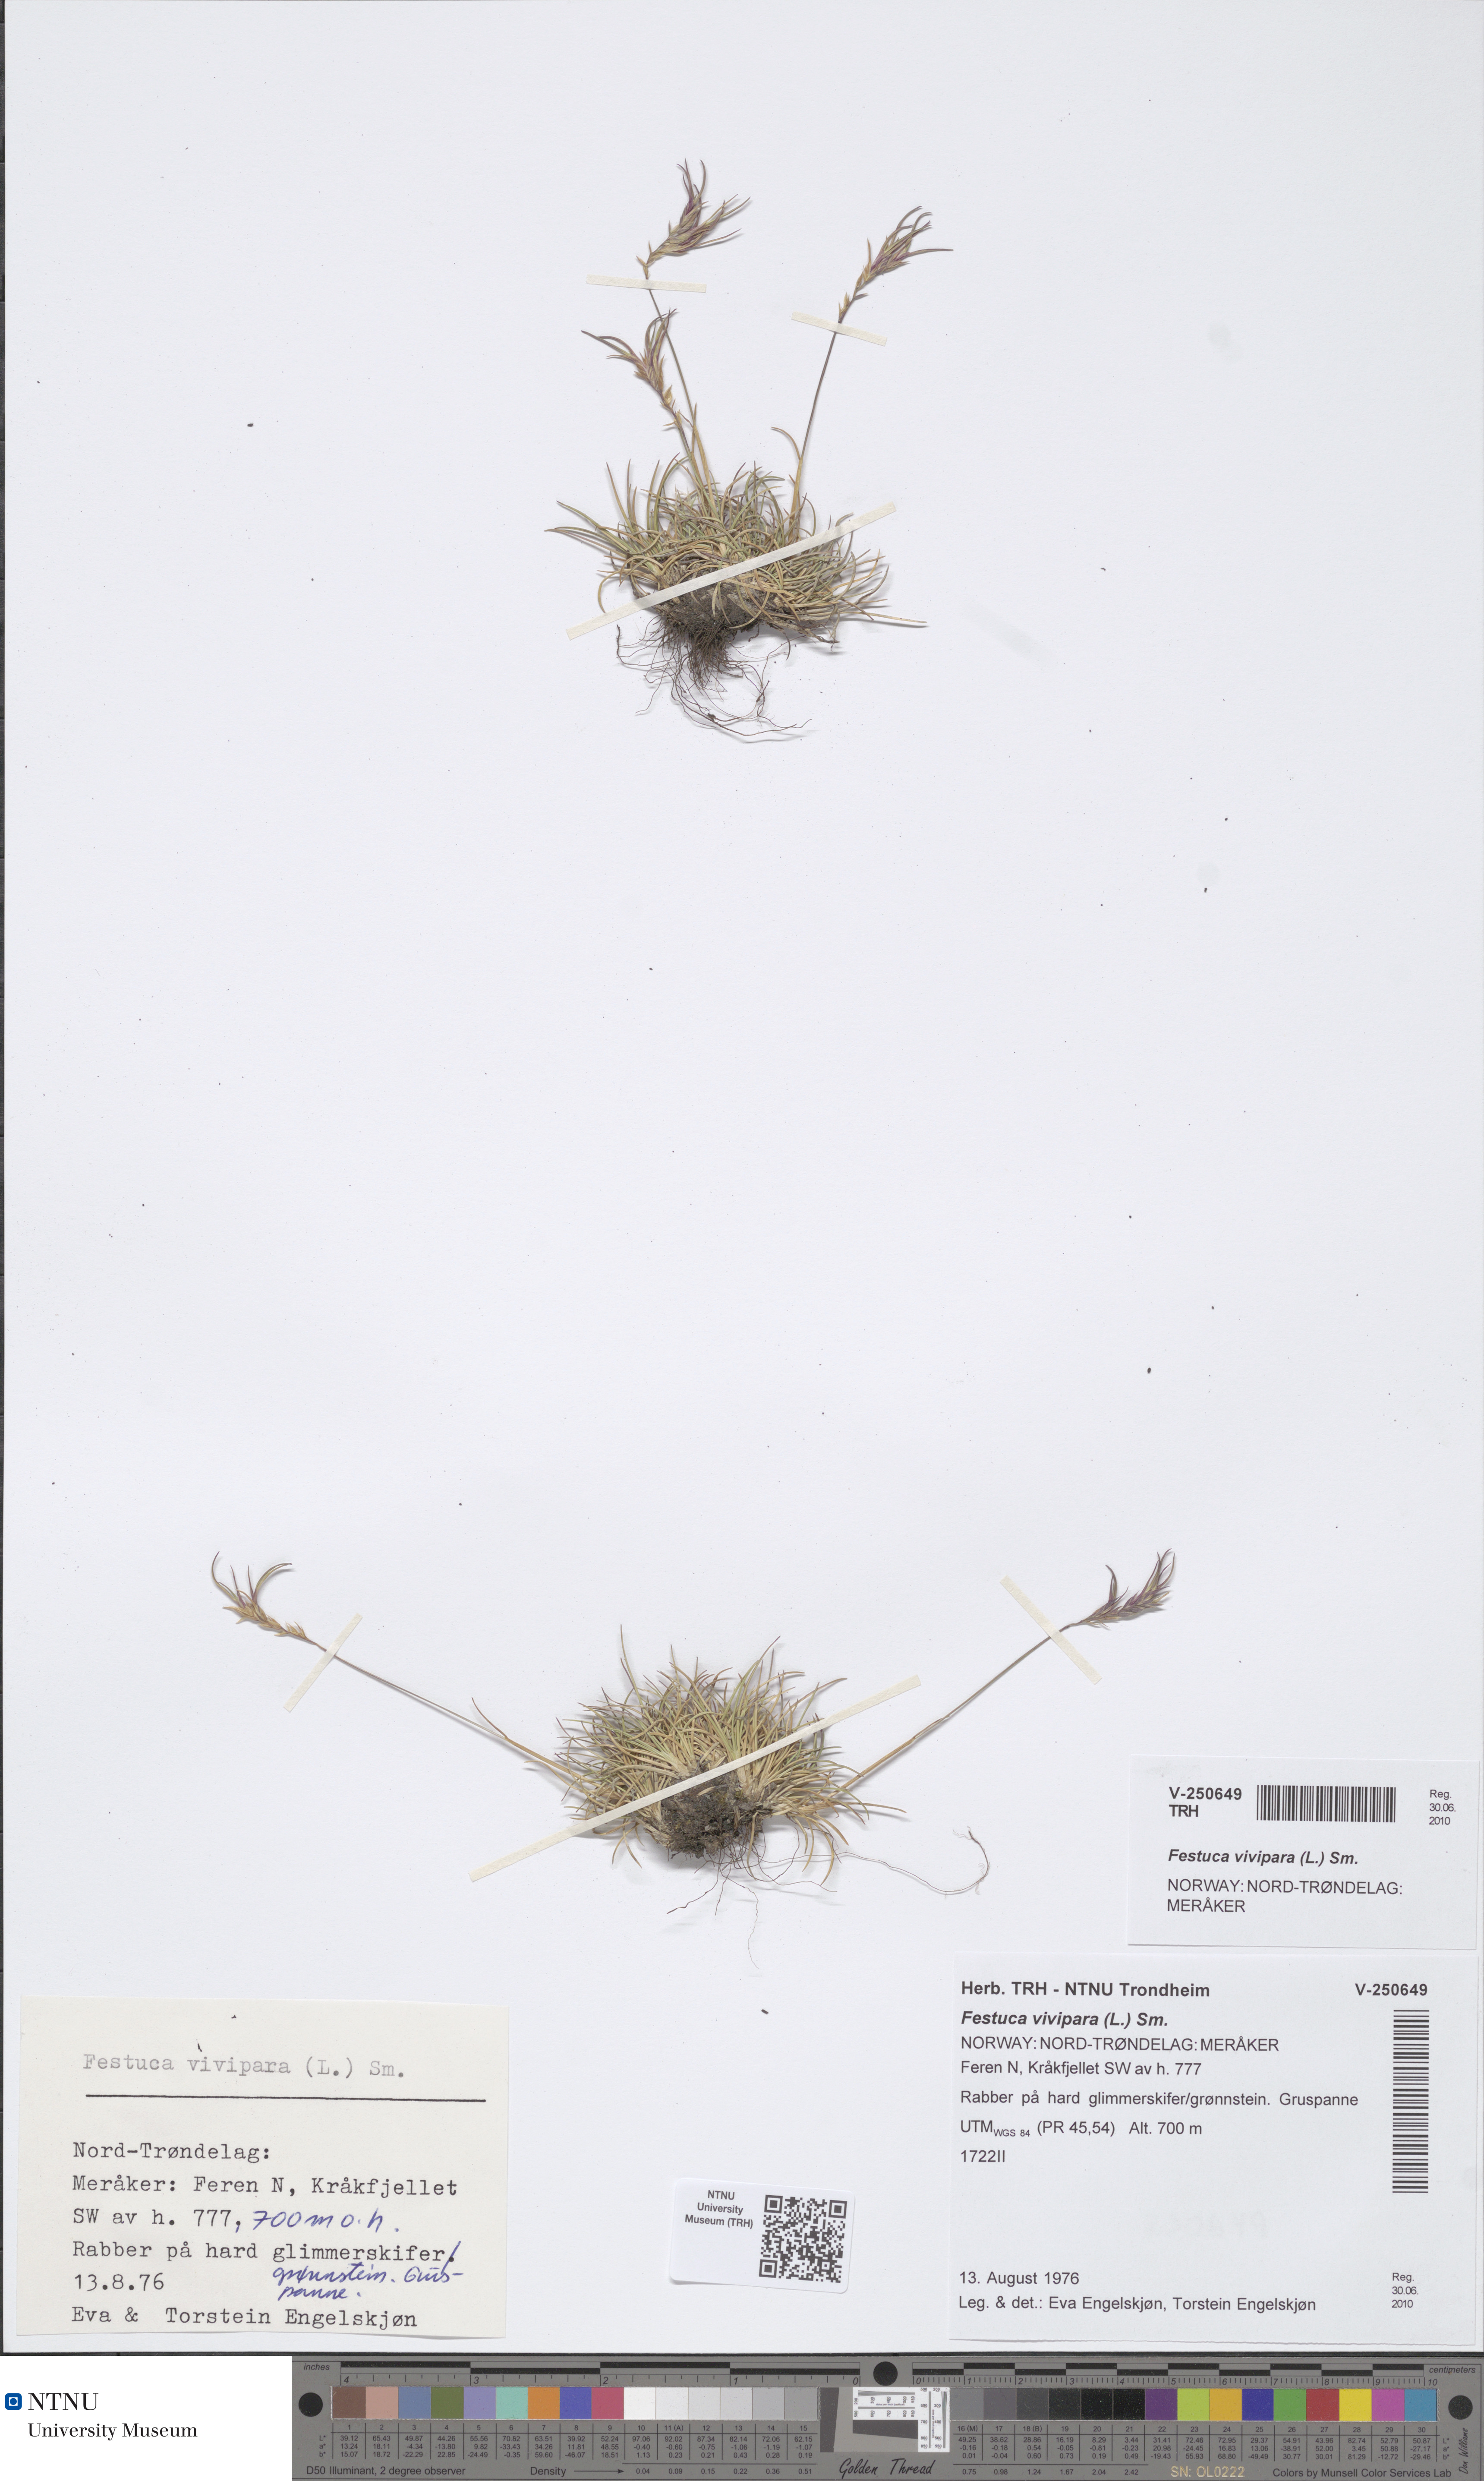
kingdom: Plantae
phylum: Tracheophyta
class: Liliopsida
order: Poales
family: Poaceae
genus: Festuca
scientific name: Festuca vivipara
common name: Viviparous sheep's-fescue
